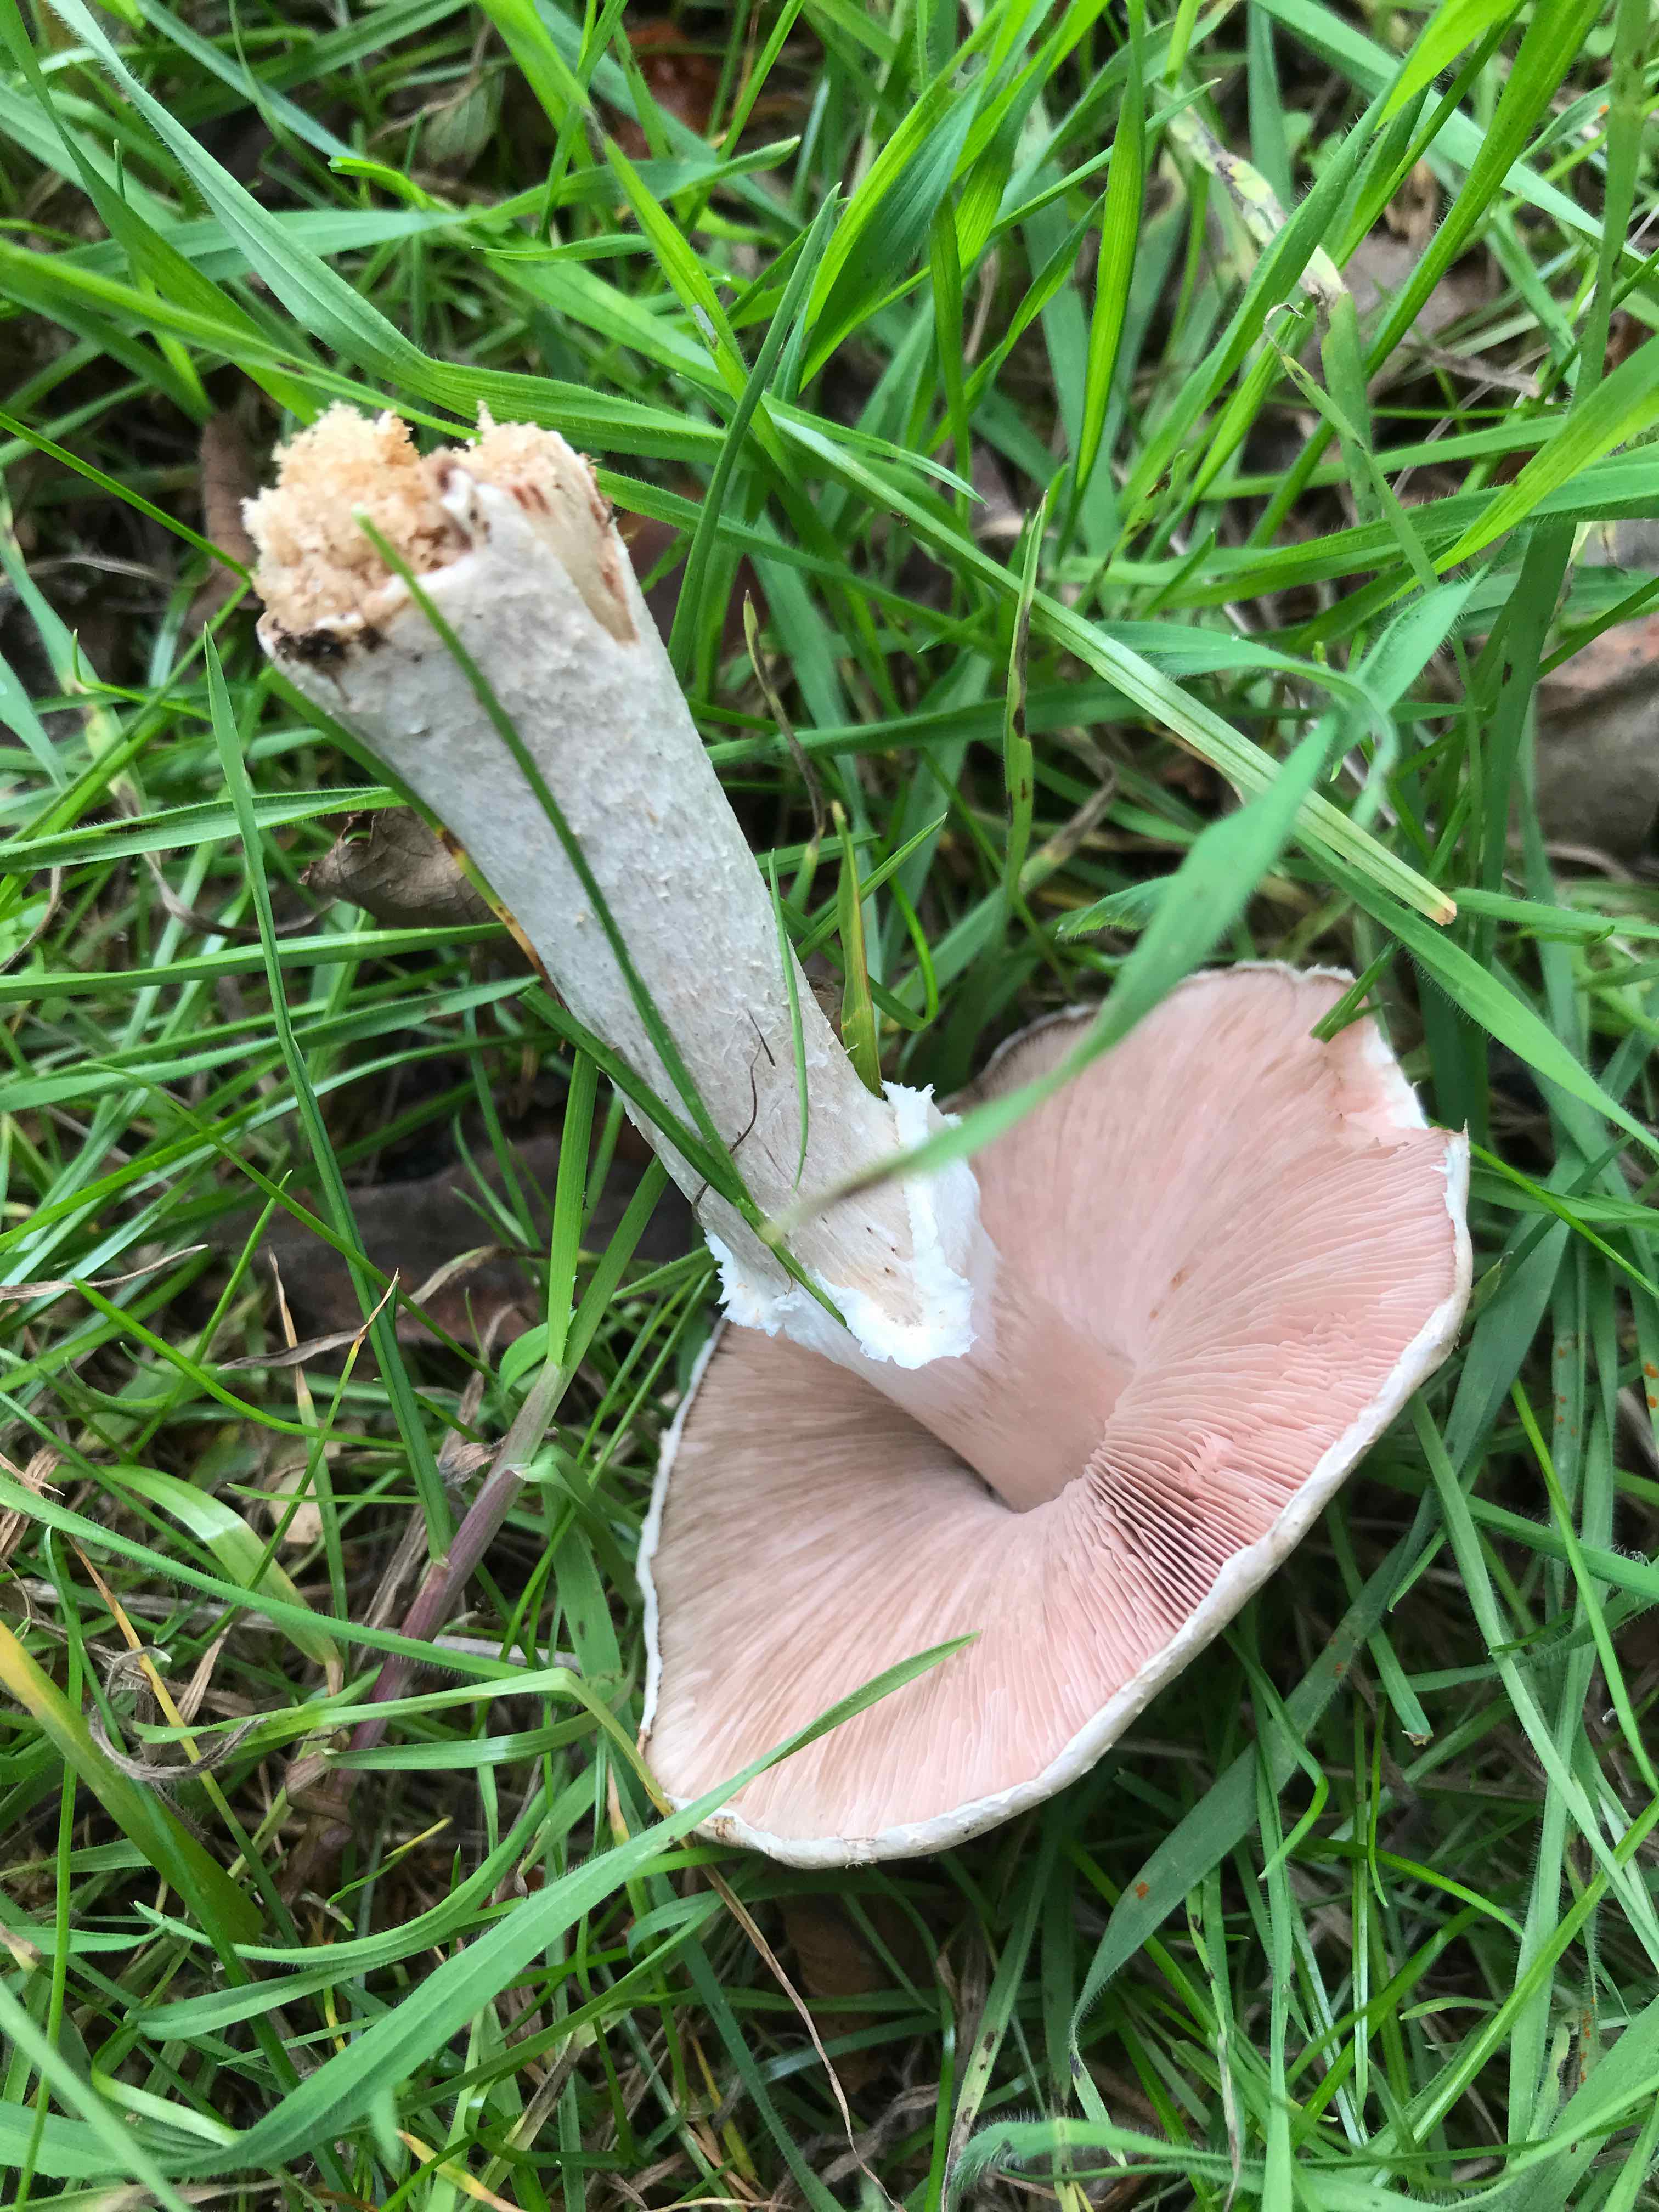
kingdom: Fungi
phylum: Basidiomycota
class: Agaricomycetes
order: Agaricales
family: Agaricaceae
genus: Agaricus
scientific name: Agaricus
